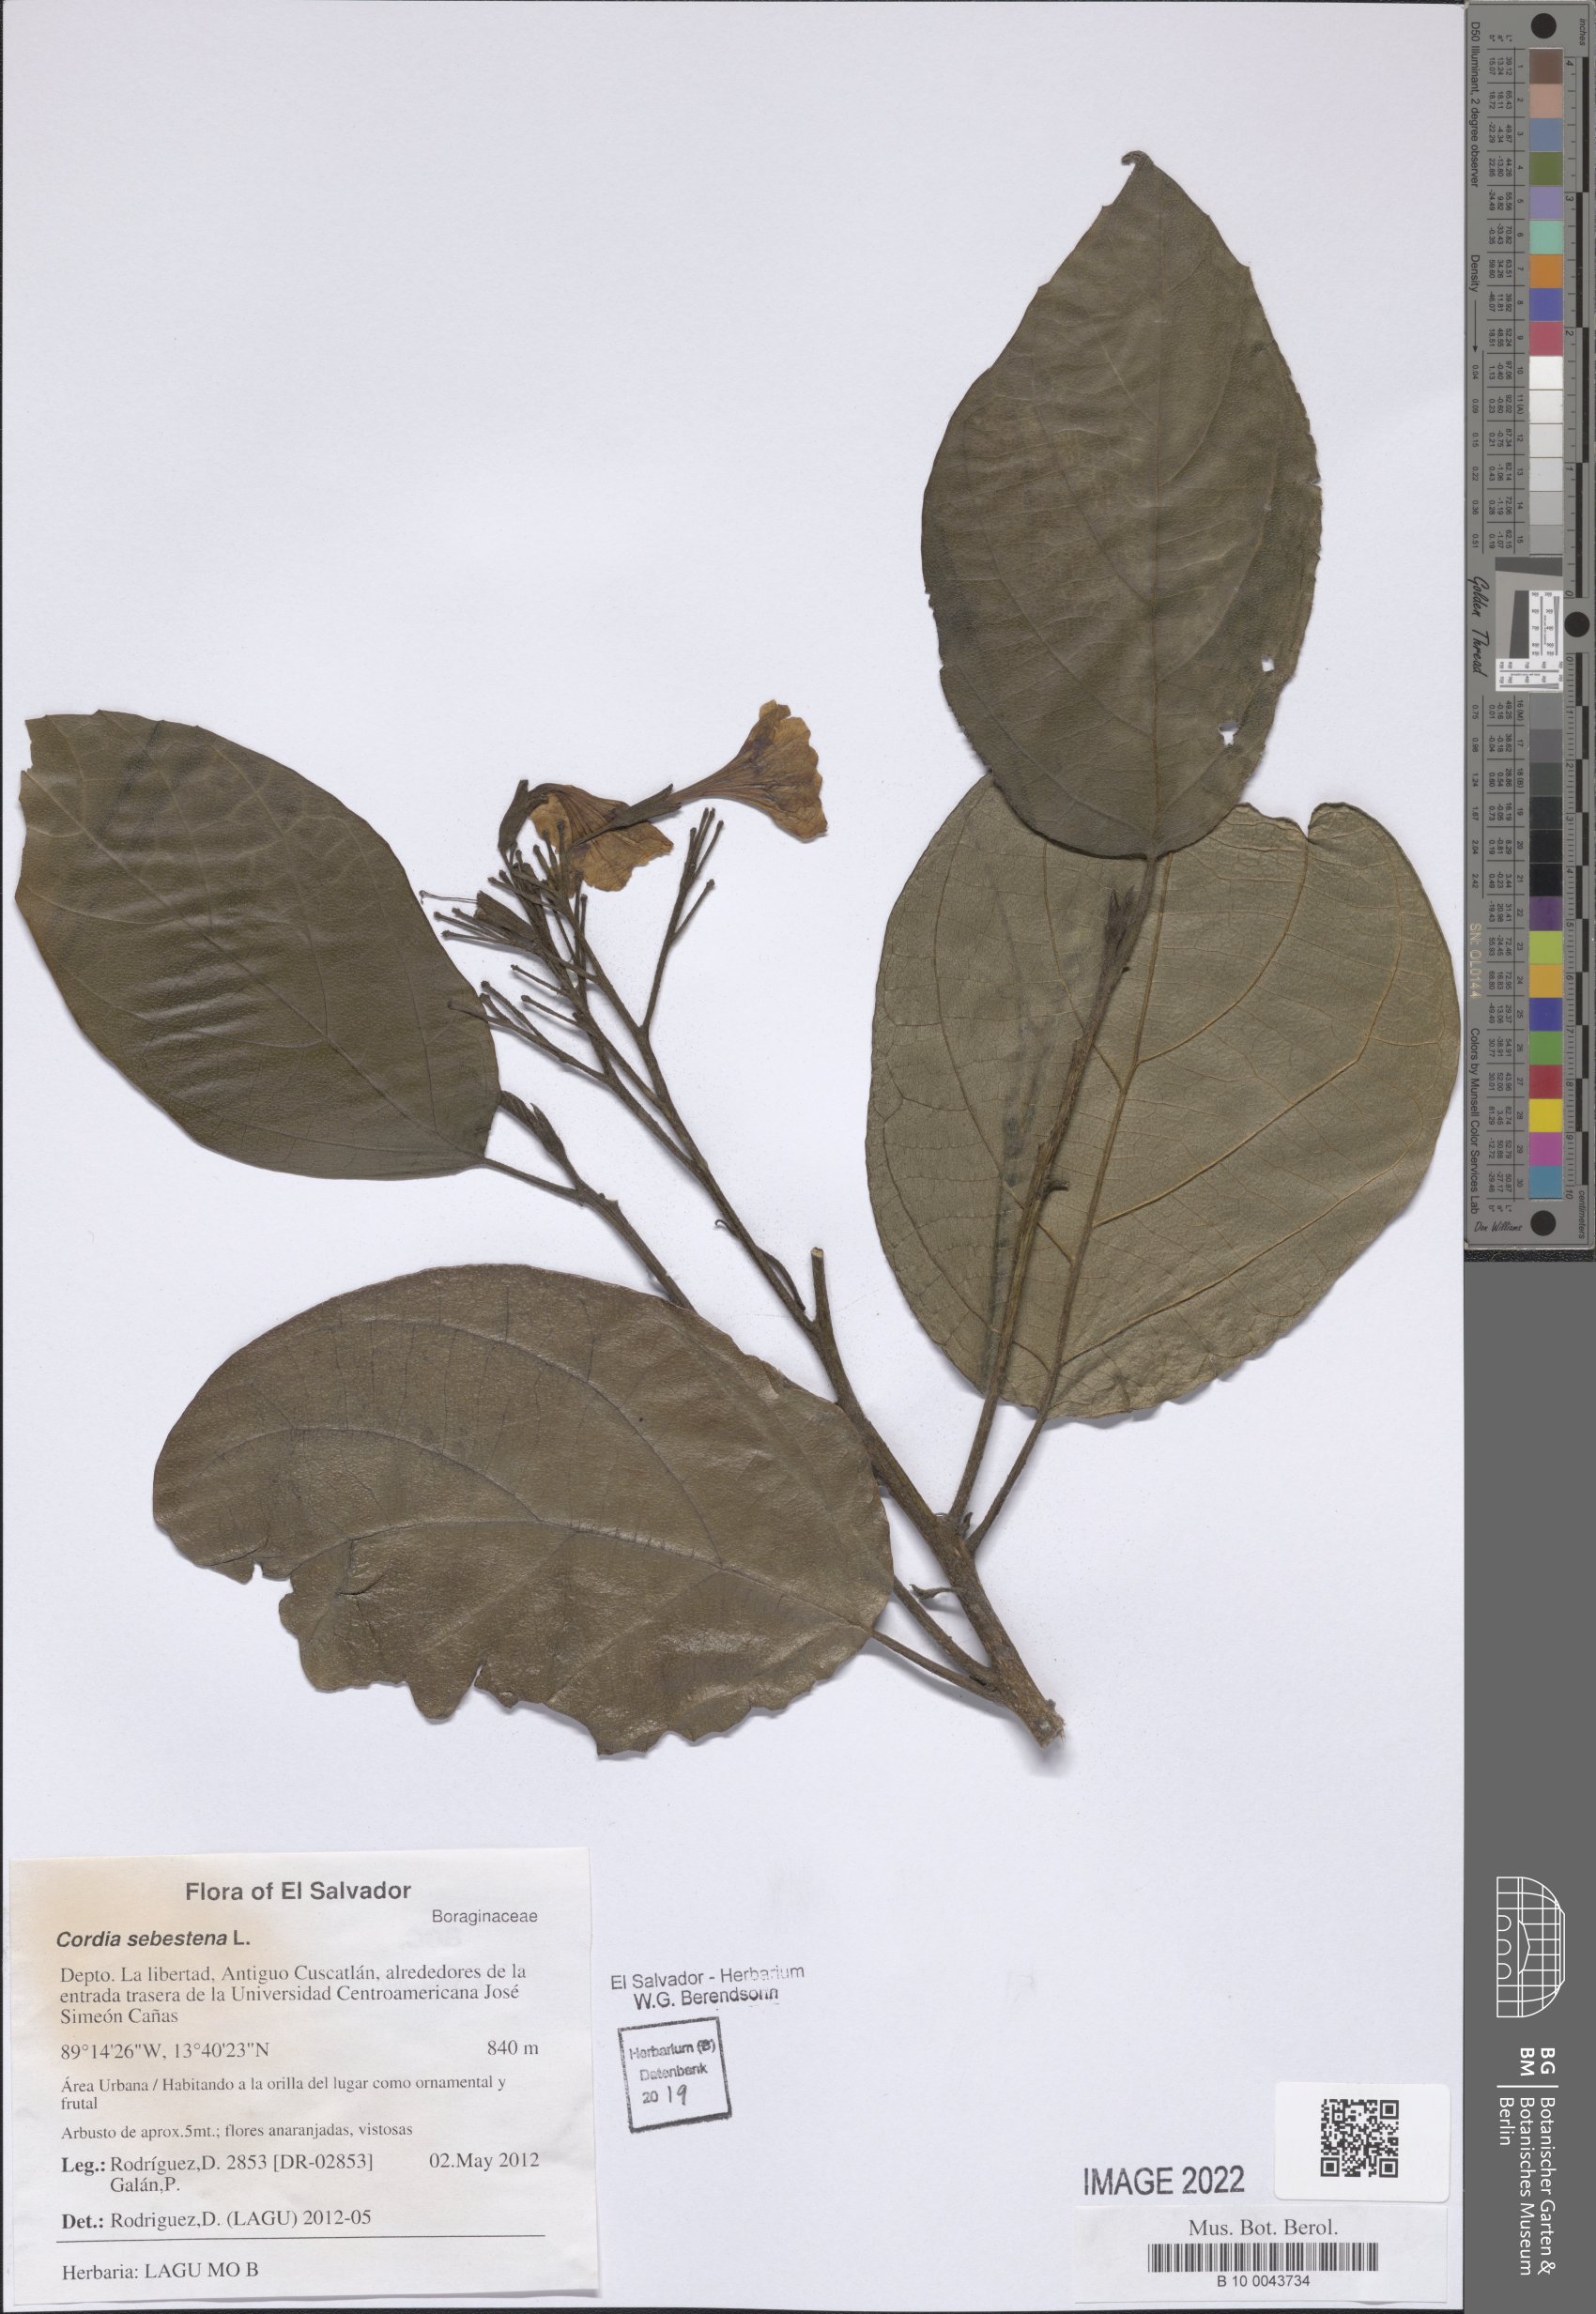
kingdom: Plantae
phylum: Tracheophyta
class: Magnoliopsida
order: Boraginales
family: Cordiaceae
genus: Cordia
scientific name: Cordia sebestena
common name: Largeleaf geigertree
